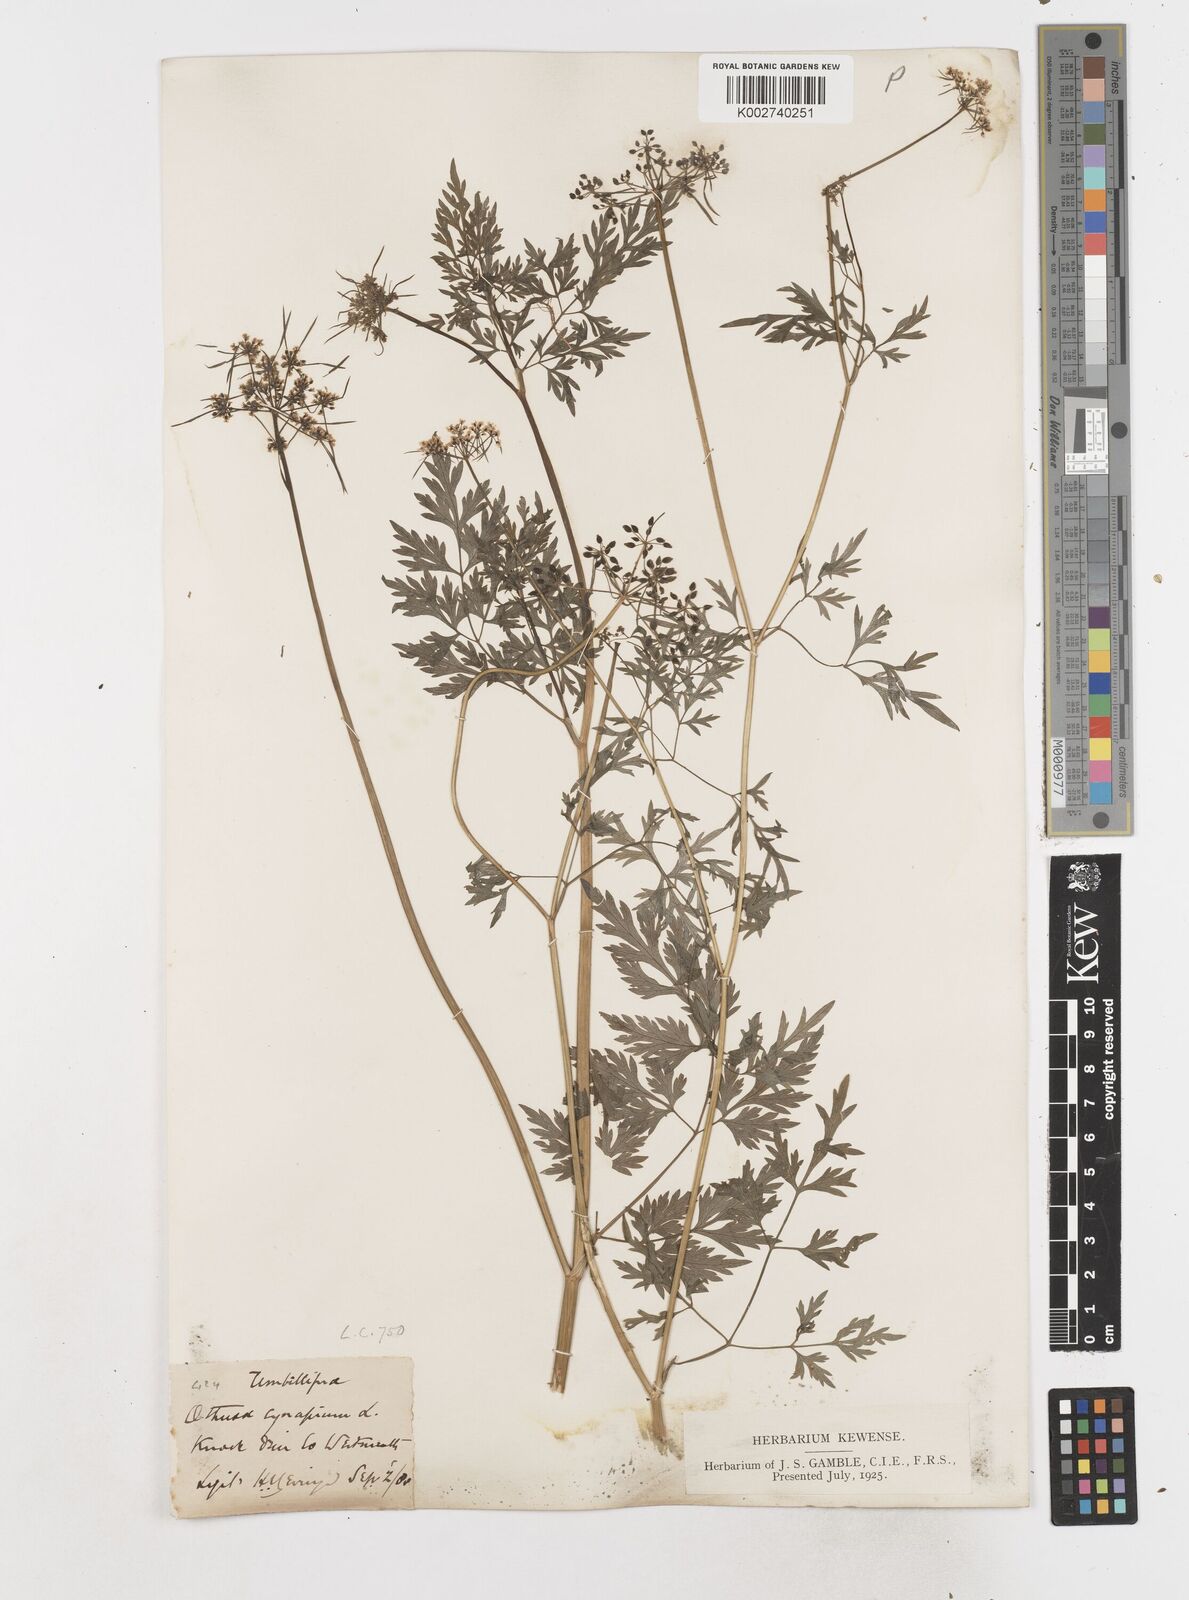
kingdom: Plantae
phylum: Tracheophyta
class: Magnoliopsida
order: Apiales
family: Apiaceae
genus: Aethusa
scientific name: Aethusa cynapium
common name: Fool's parsley
